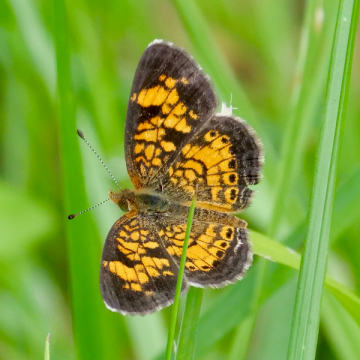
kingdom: Animalia
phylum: Arthropoda
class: Insecta
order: Lepidoptera
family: Nymphalidae
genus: Phyciodes
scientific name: Phyciodes tharos
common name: Pearl Crescent
